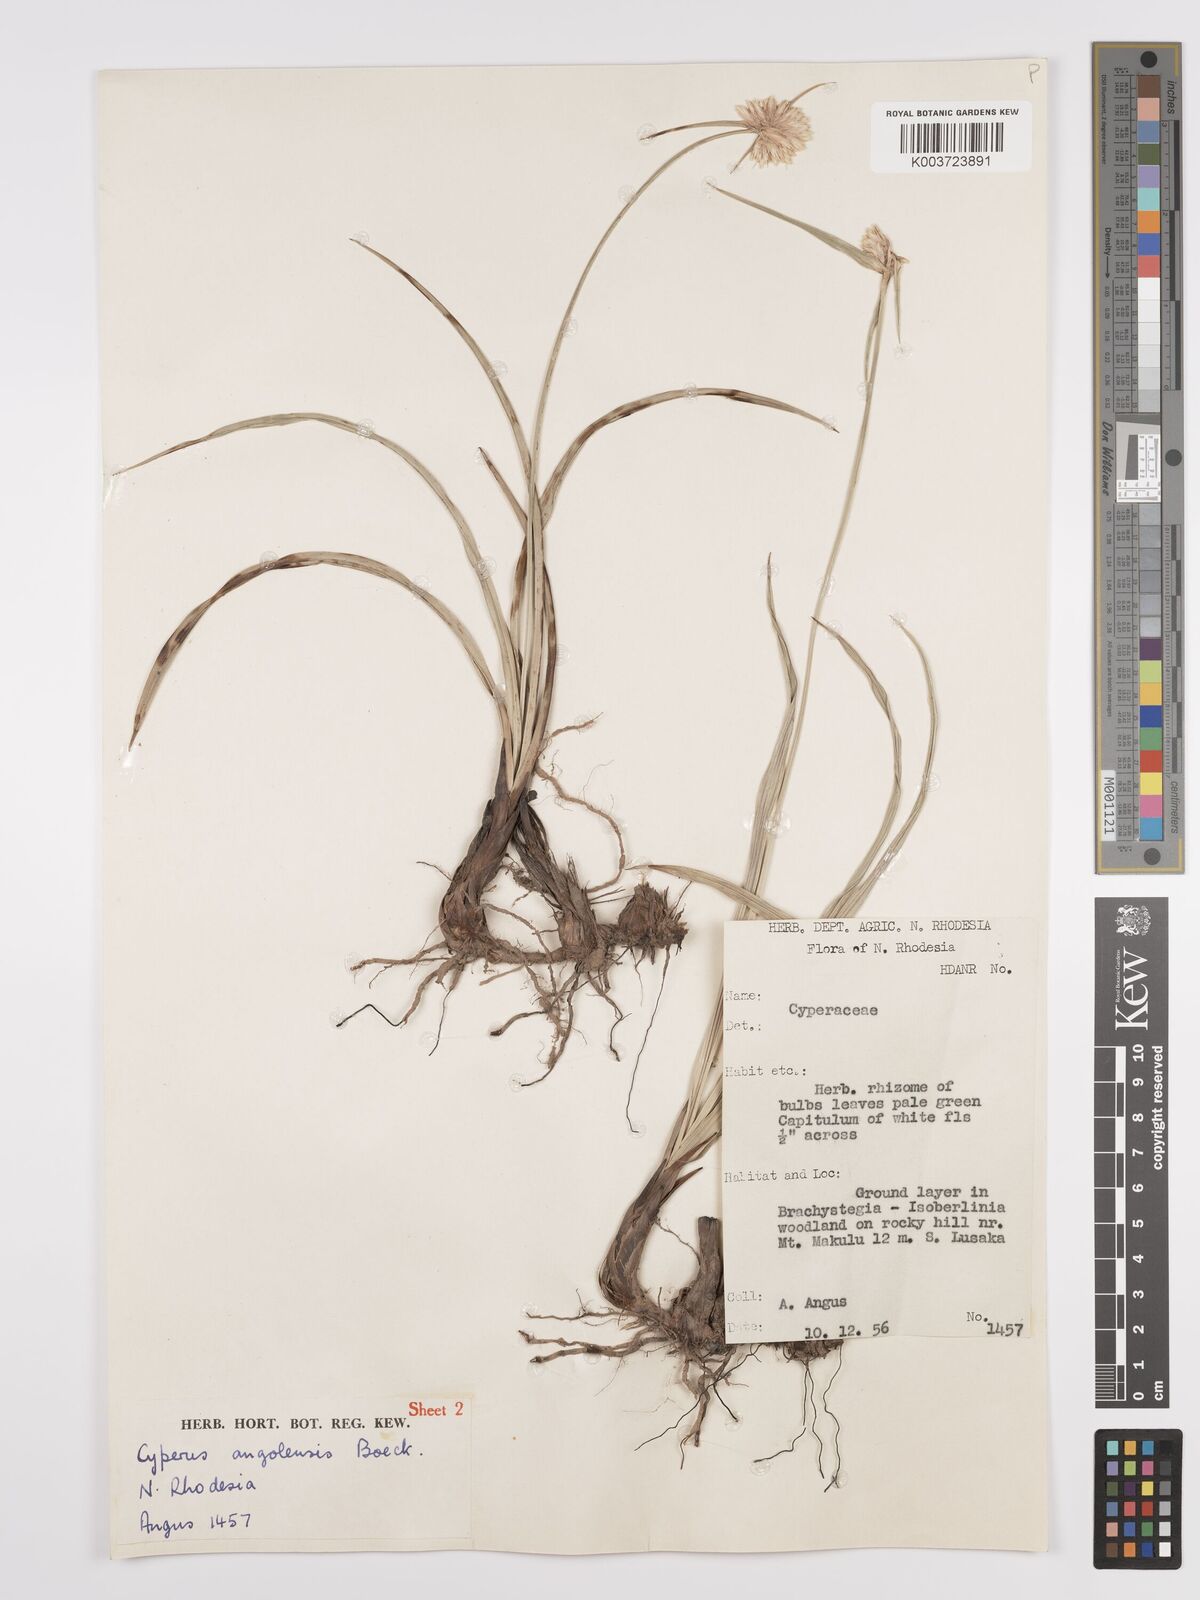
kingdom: Plantae
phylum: Tracheophyta
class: Liliopsida
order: Poales
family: Cyperaceae
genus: Cyperus
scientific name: Cyperus angolensis
